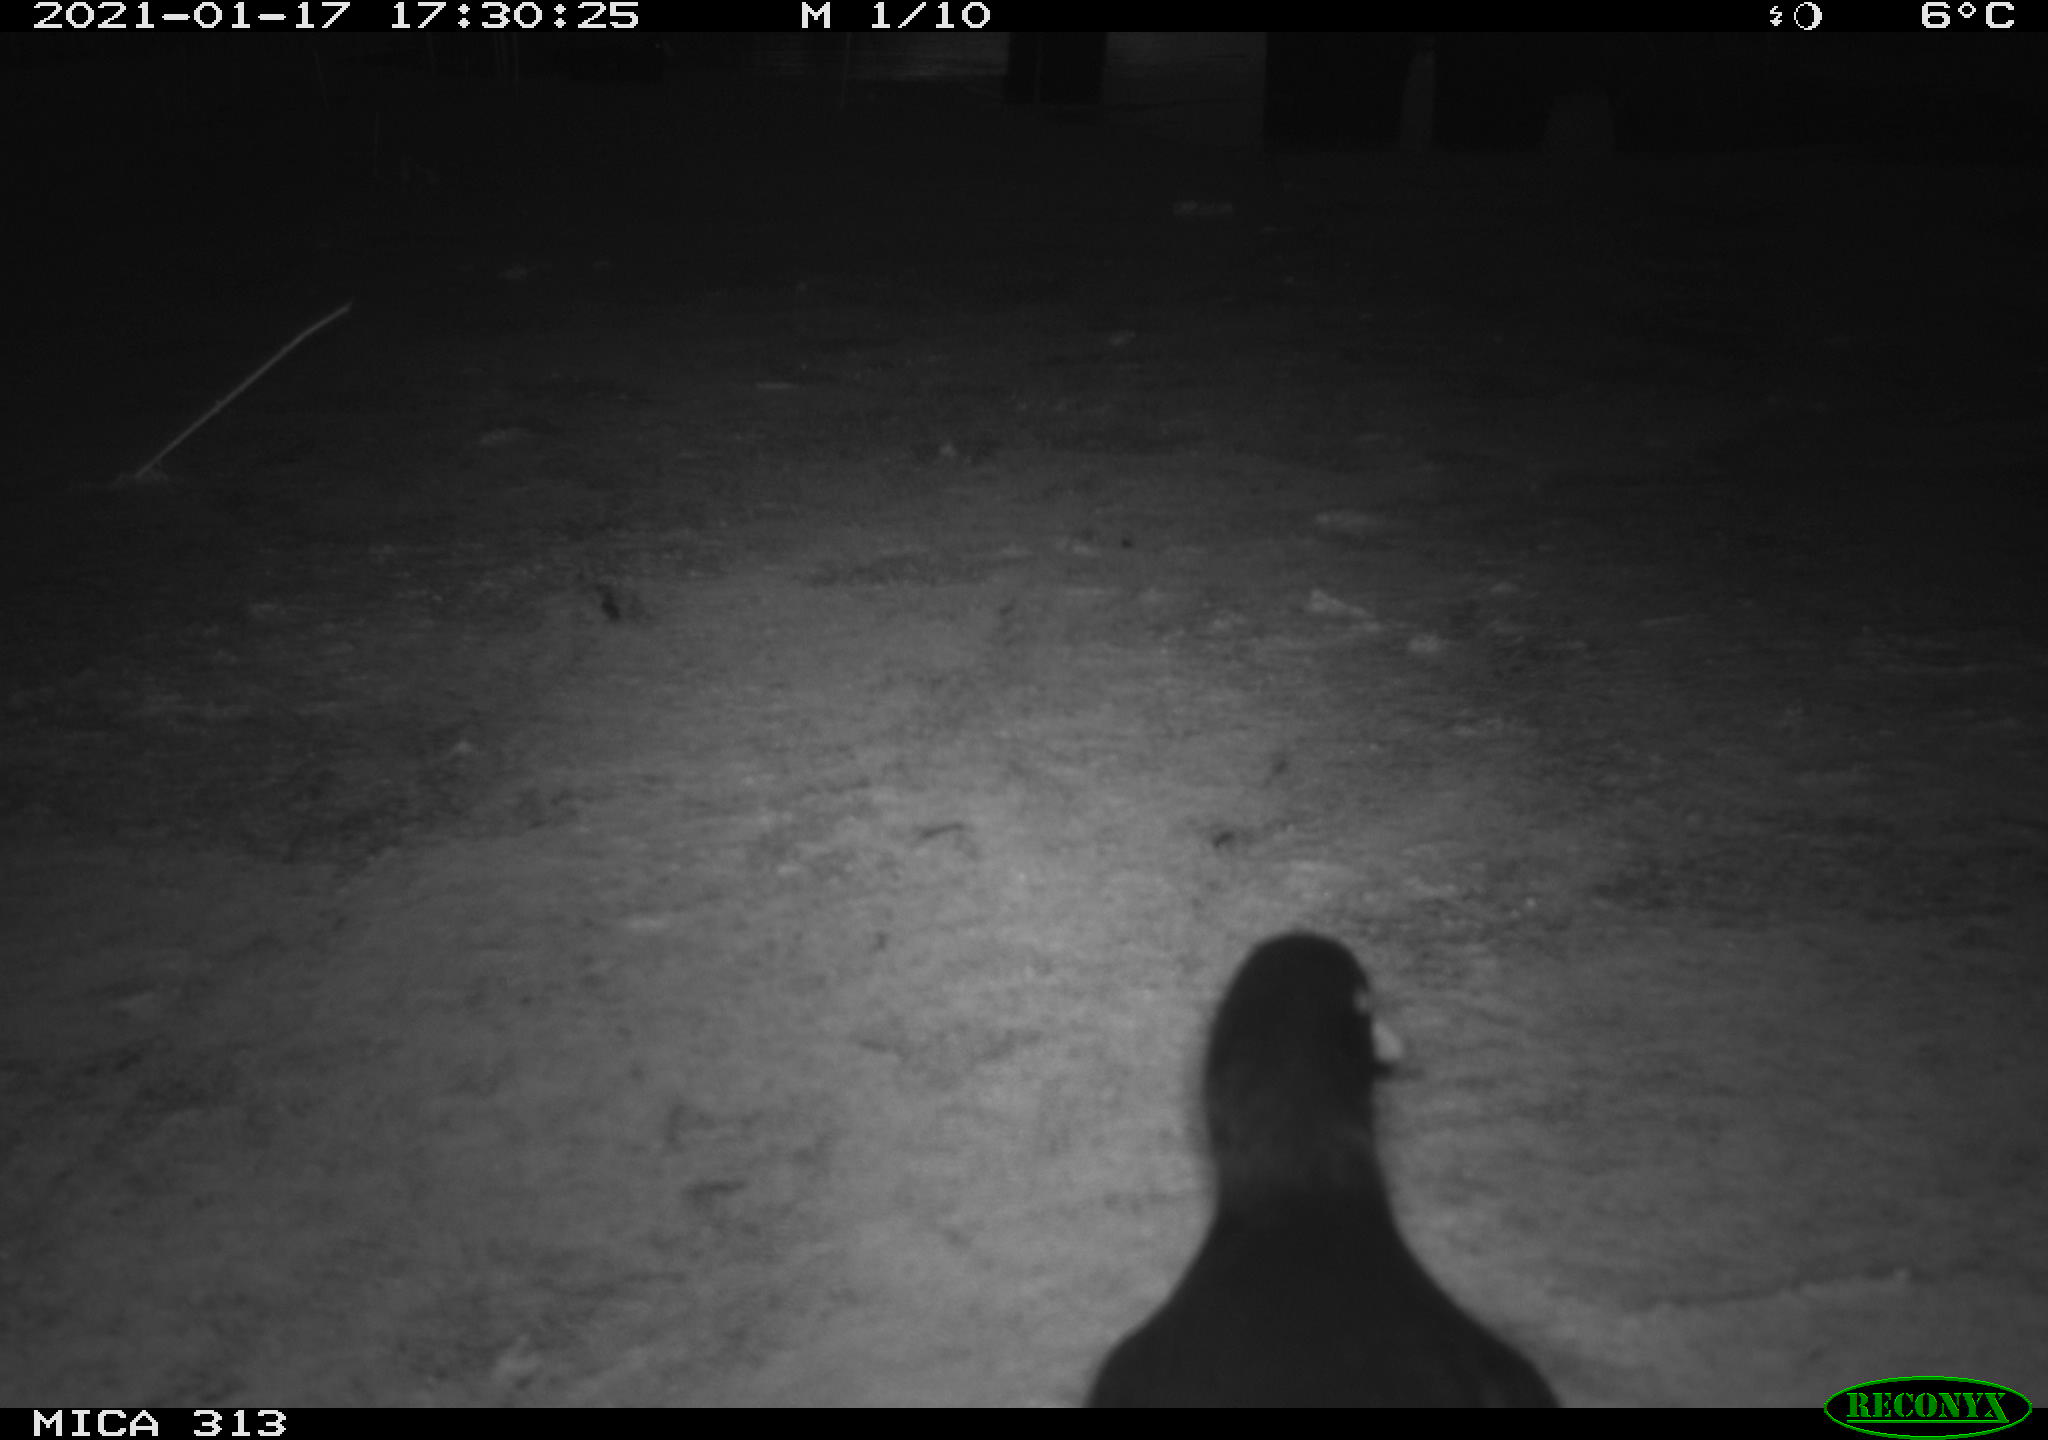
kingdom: Animalia
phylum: Chordata
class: Aves
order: Gruiformes
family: Rallidae
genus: Gallinula
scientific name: Gallinula chloropus
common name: Common moorhen
